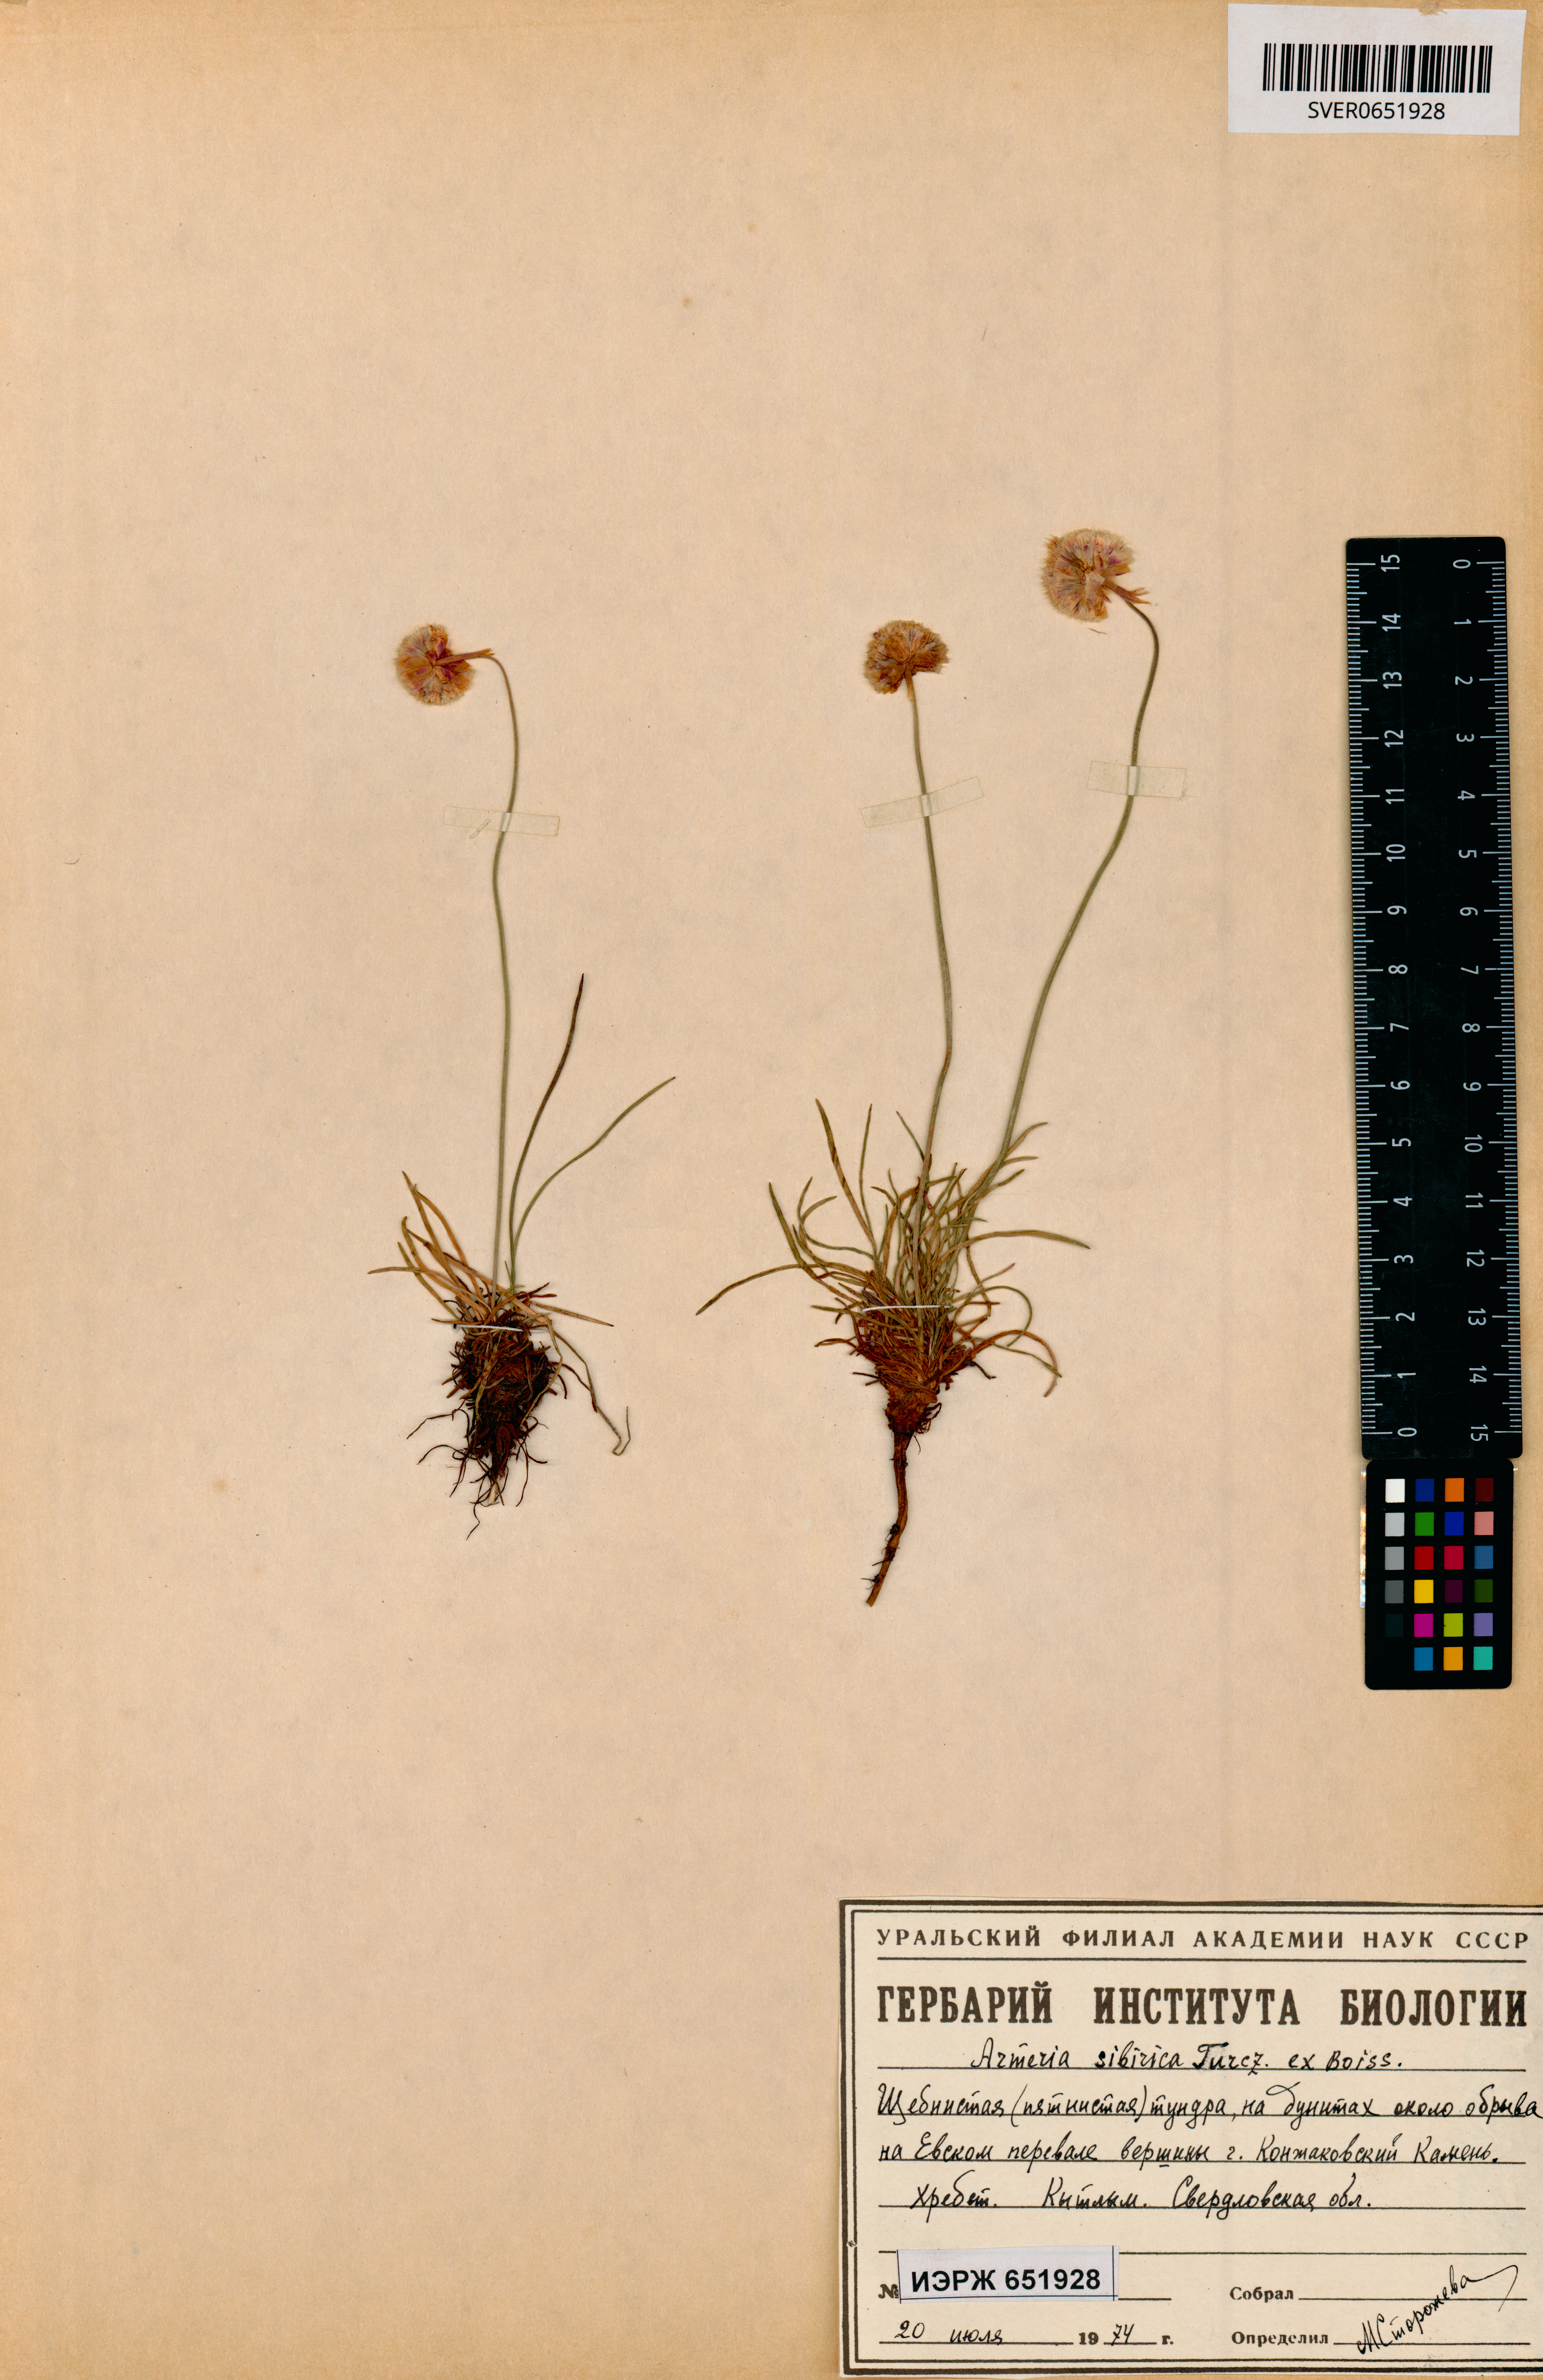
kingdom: Plantae
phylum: Tracheophyta
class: Magnoliopsida
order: Caryophyllales
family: Plumbaginaceae
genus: Armeria
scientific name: Armeria maritima
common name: Thrift
